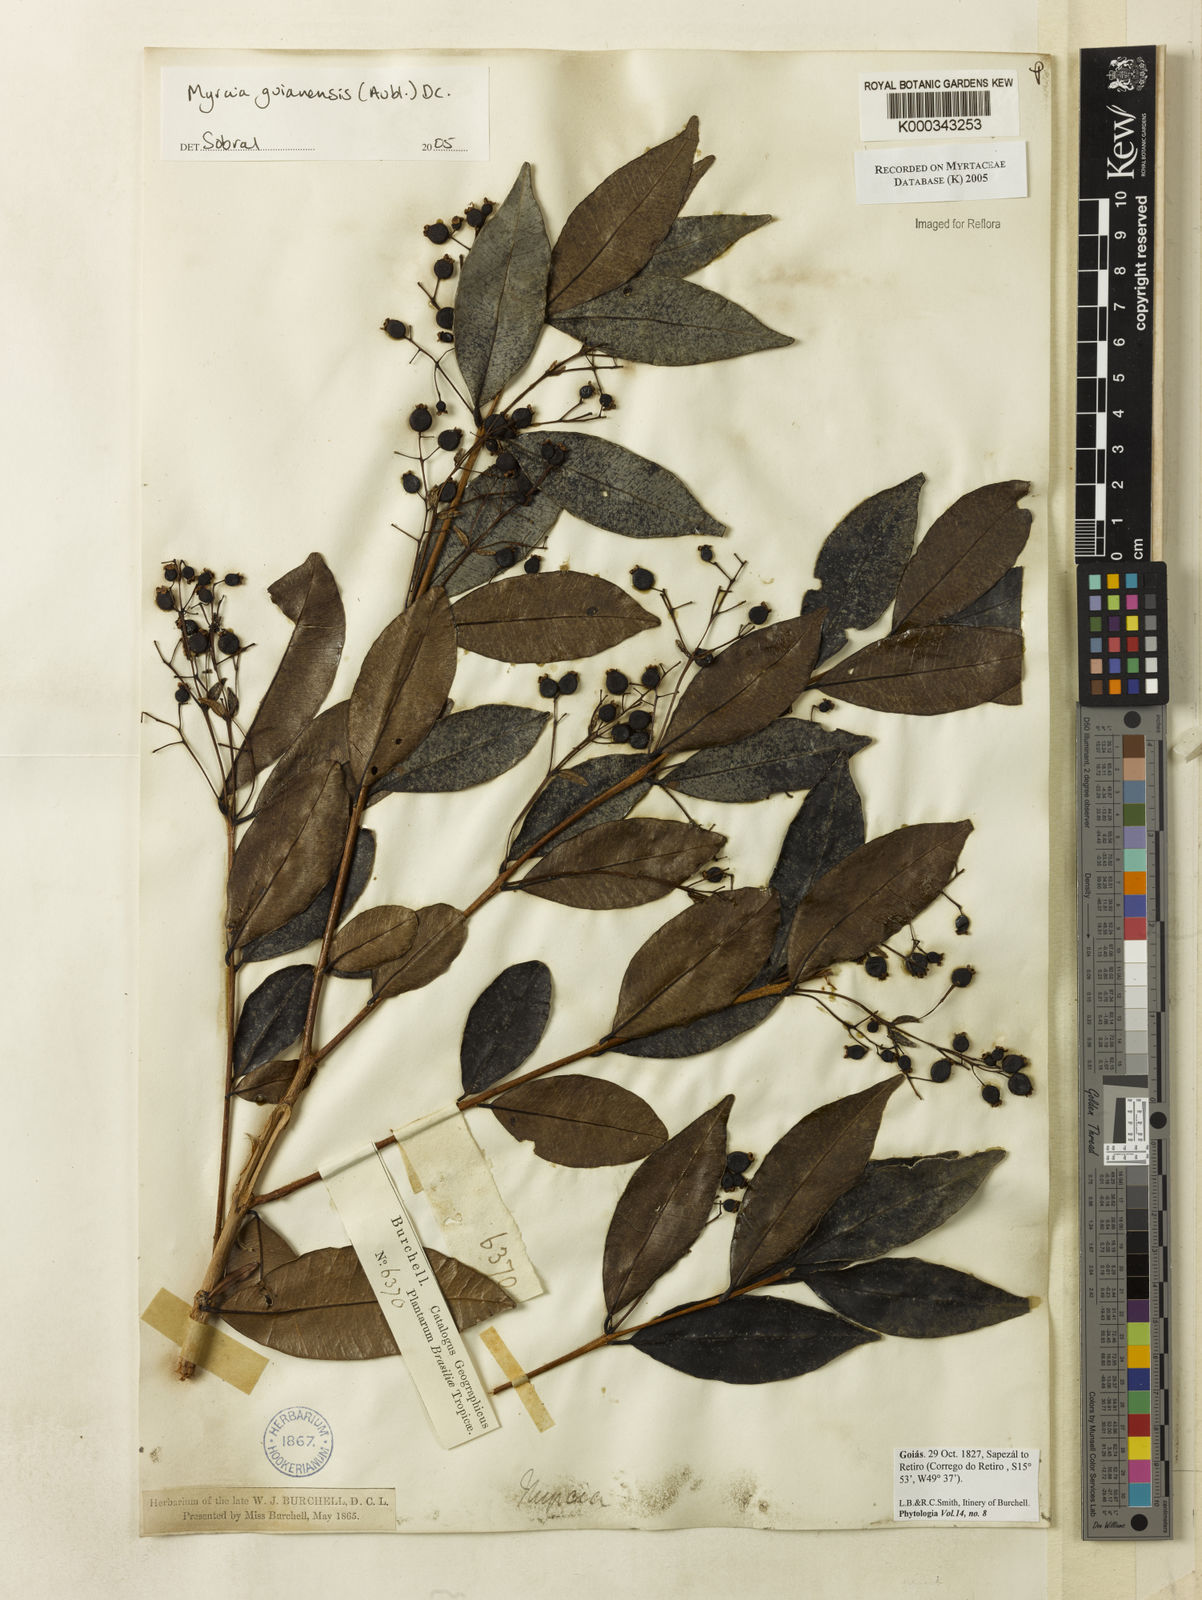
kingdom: Plantae
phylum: Tracheophyta
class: Magnoliopsida
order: Myrtales
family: Myrtaceae
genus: Myrcia
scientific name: Myrcia guianensis
